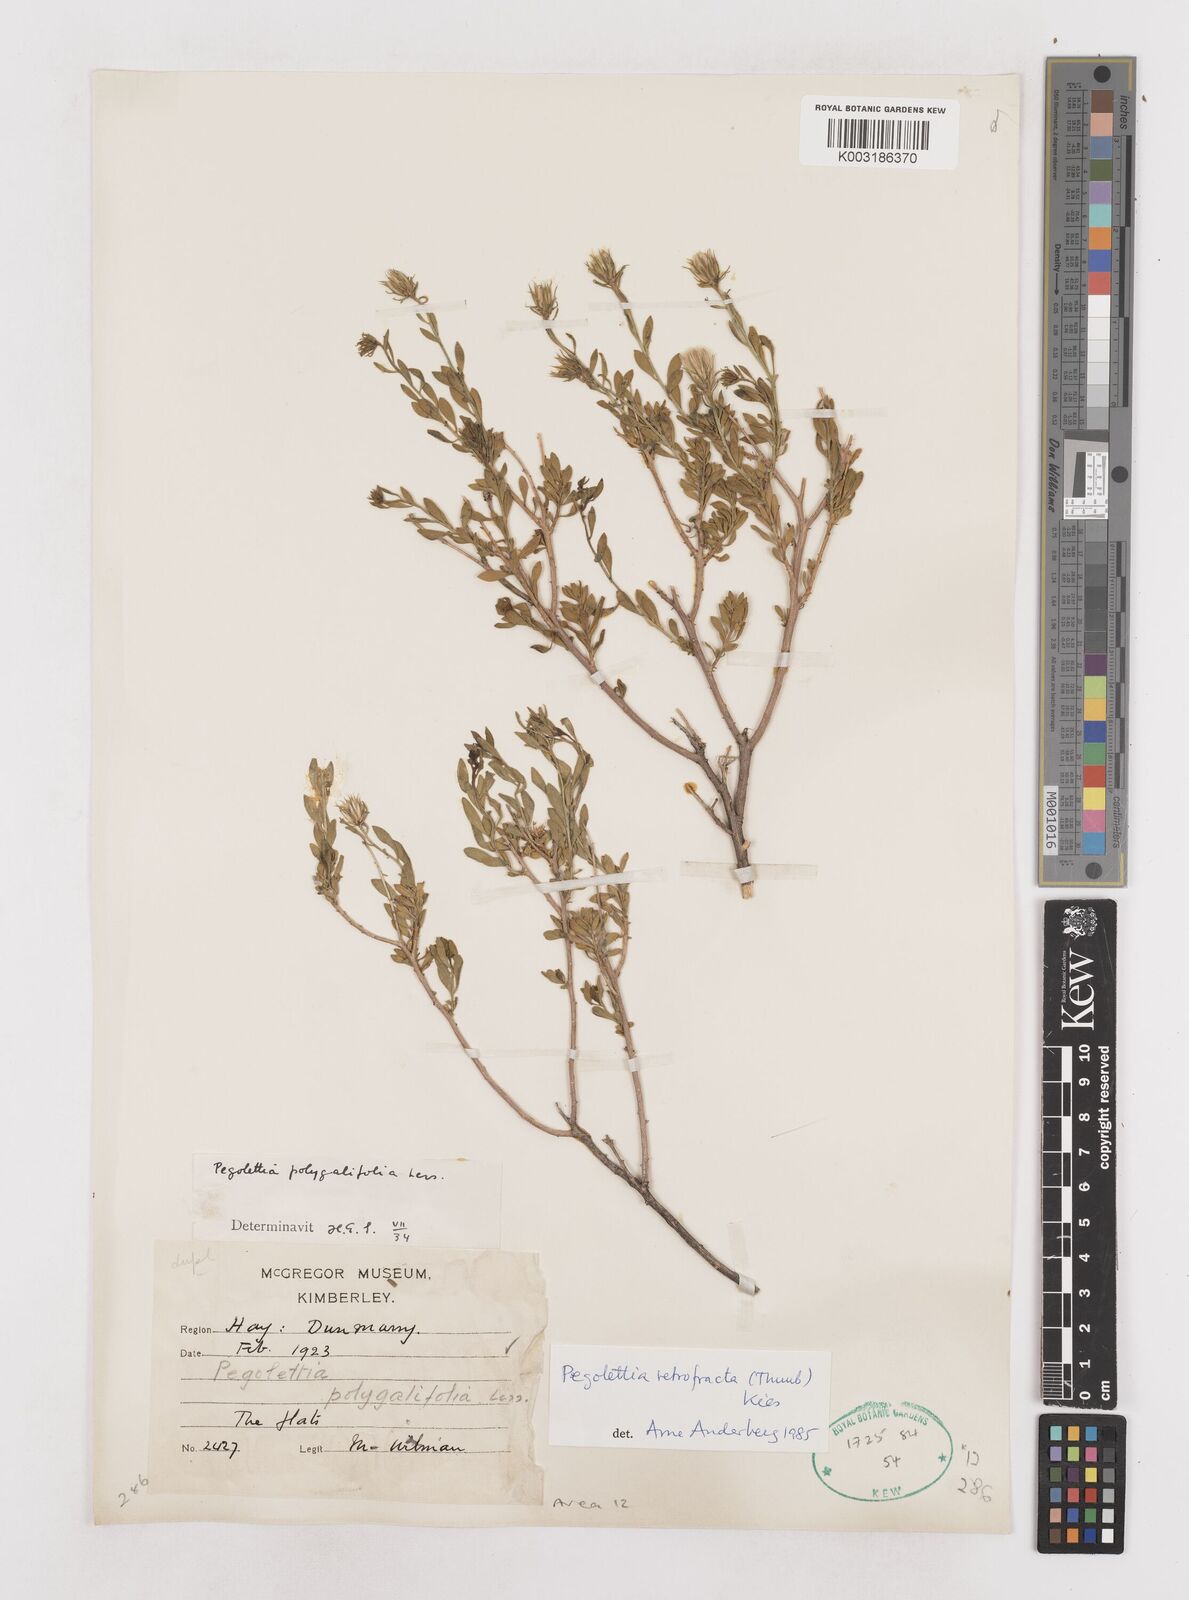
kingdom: Plantae
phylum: Tracheophyta
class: Magnoliopsida
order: Asterales
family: Asteraceae
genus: Pegolettia
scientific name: Pegolettia retrofracta
